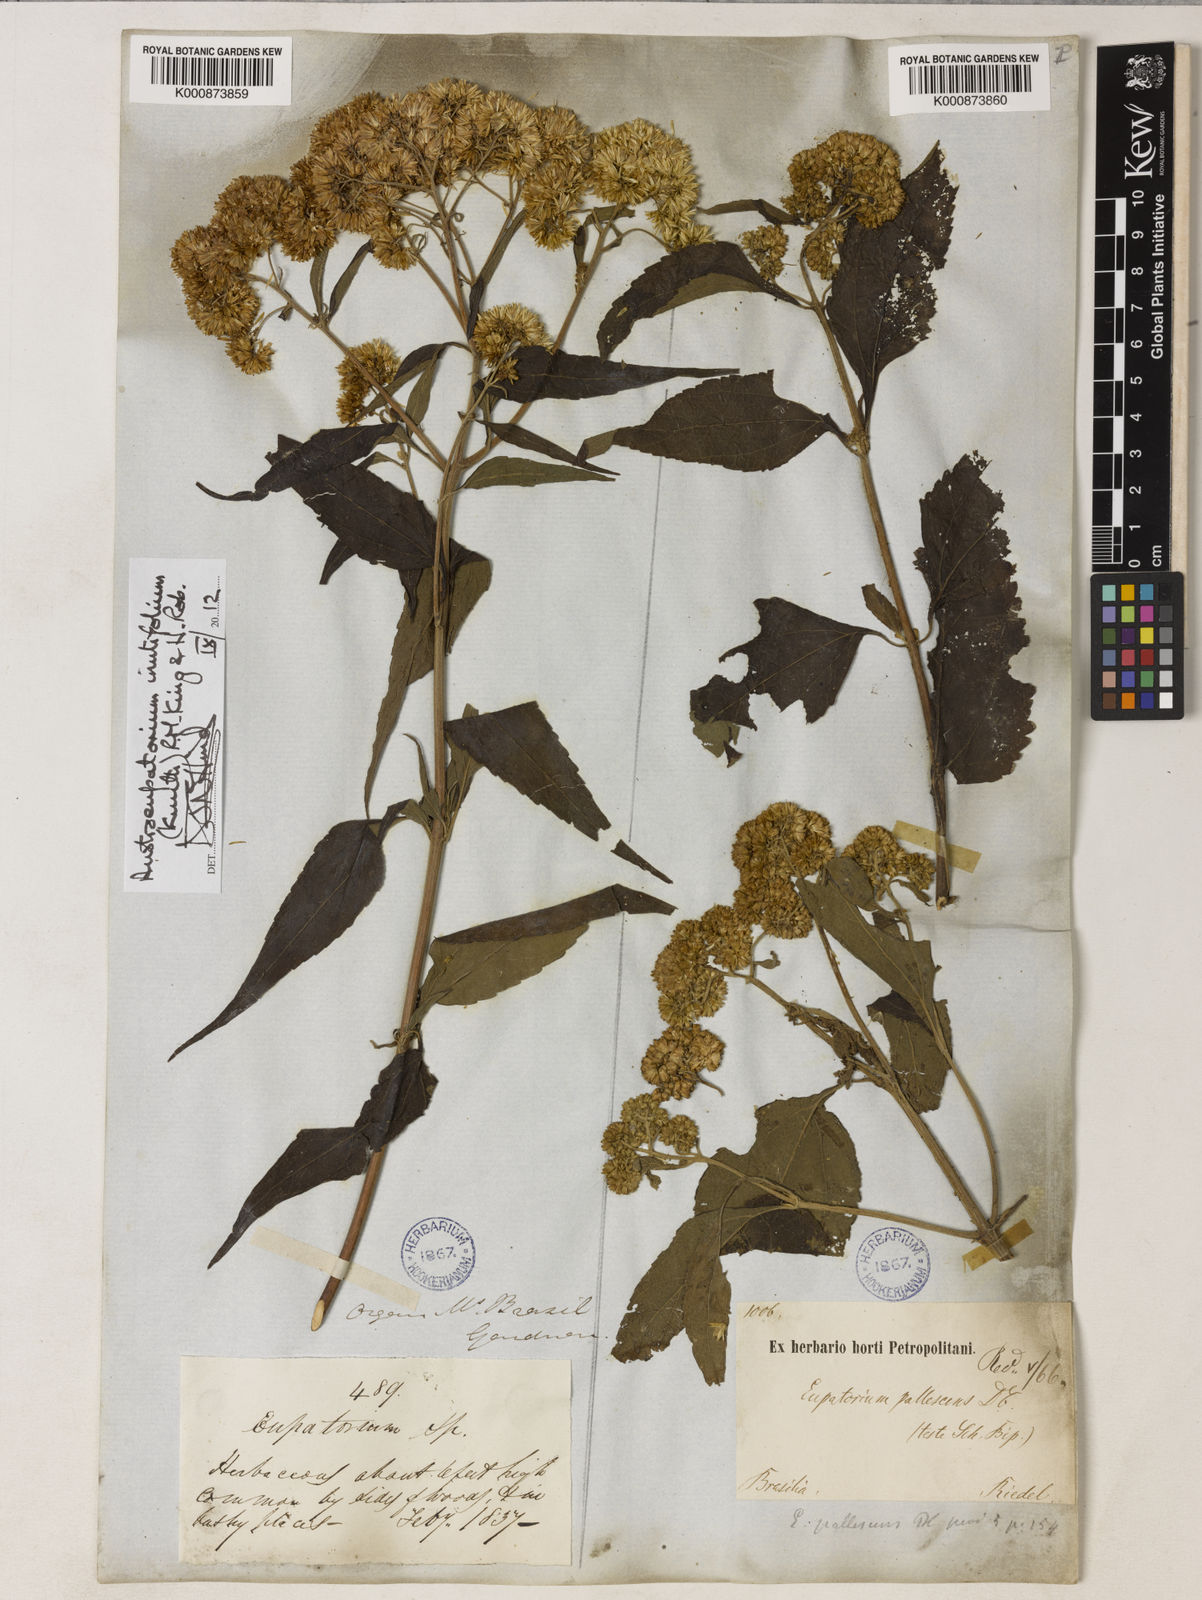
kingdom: Plantae
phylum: Tracheophyta
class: Magnoliopsida
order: Asterales
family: Asteraceae
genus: Austroeupatorium
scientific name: Austroeupatorium inulifolium
